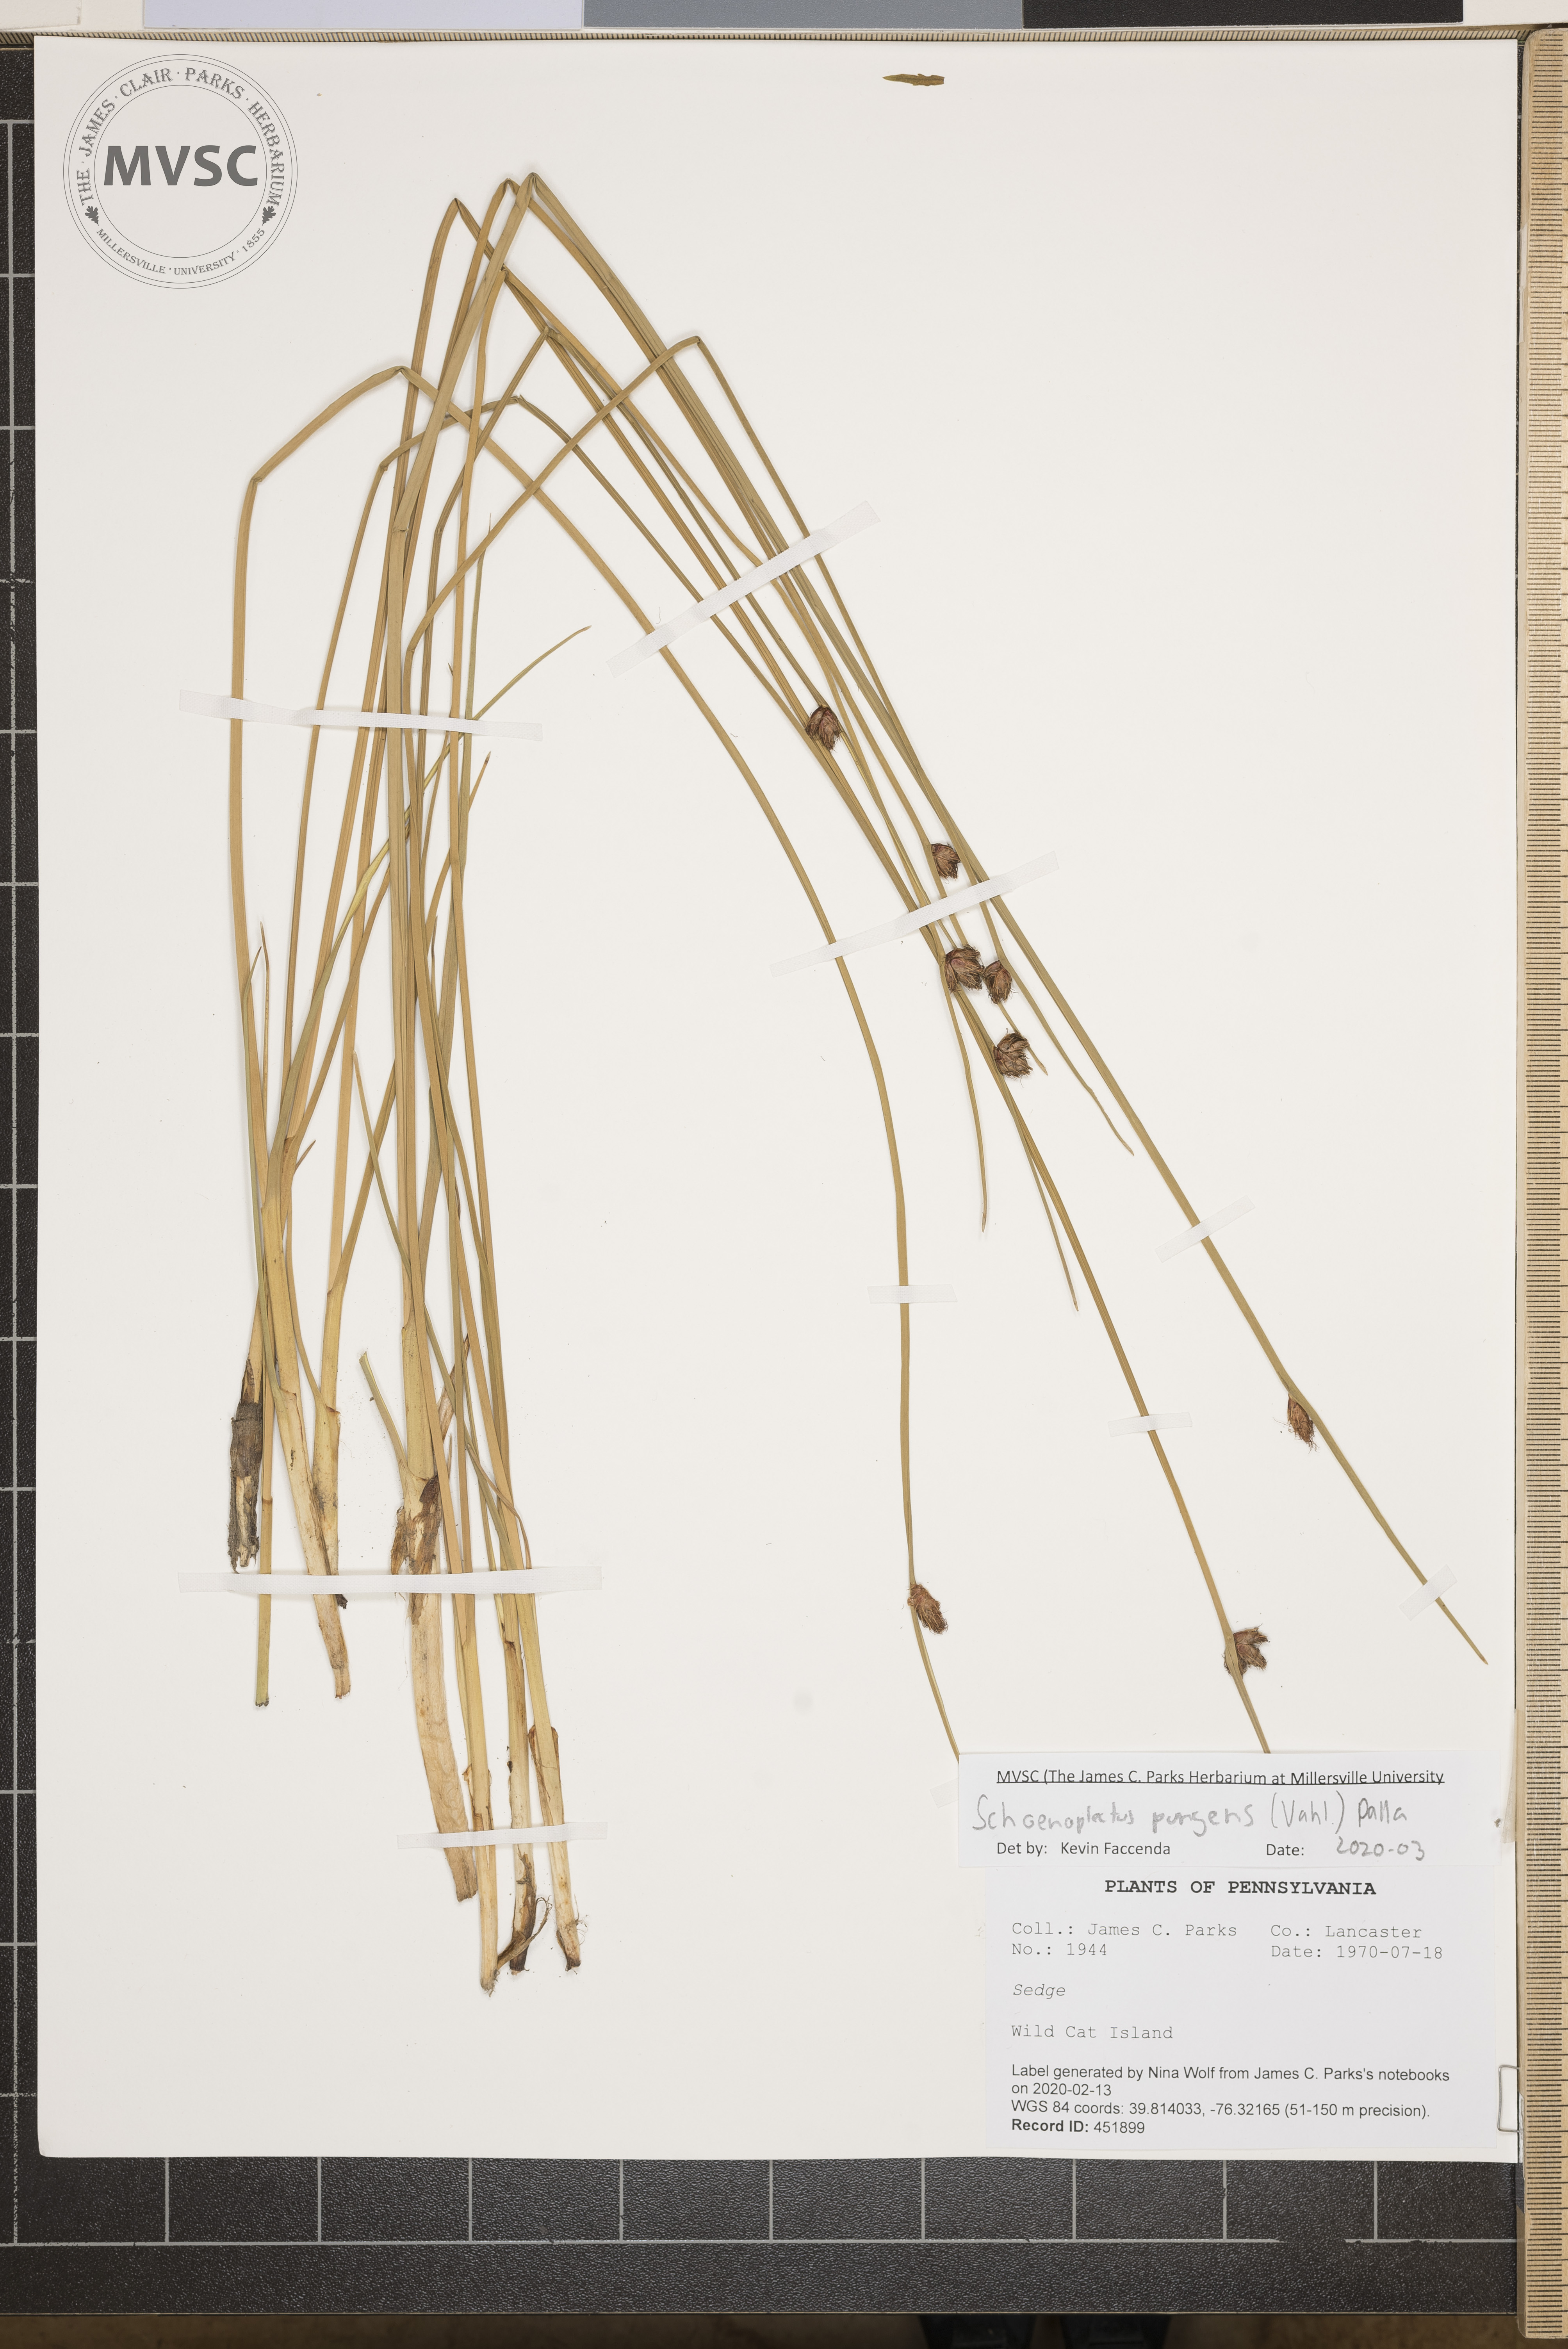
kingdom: Plantae
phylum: Tracheophyta
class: Liliopsida
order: Poales
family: Cyperaceae
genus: Schoenoplectus
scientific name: Schoenoplectus pungens
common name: Sharp club-rush
